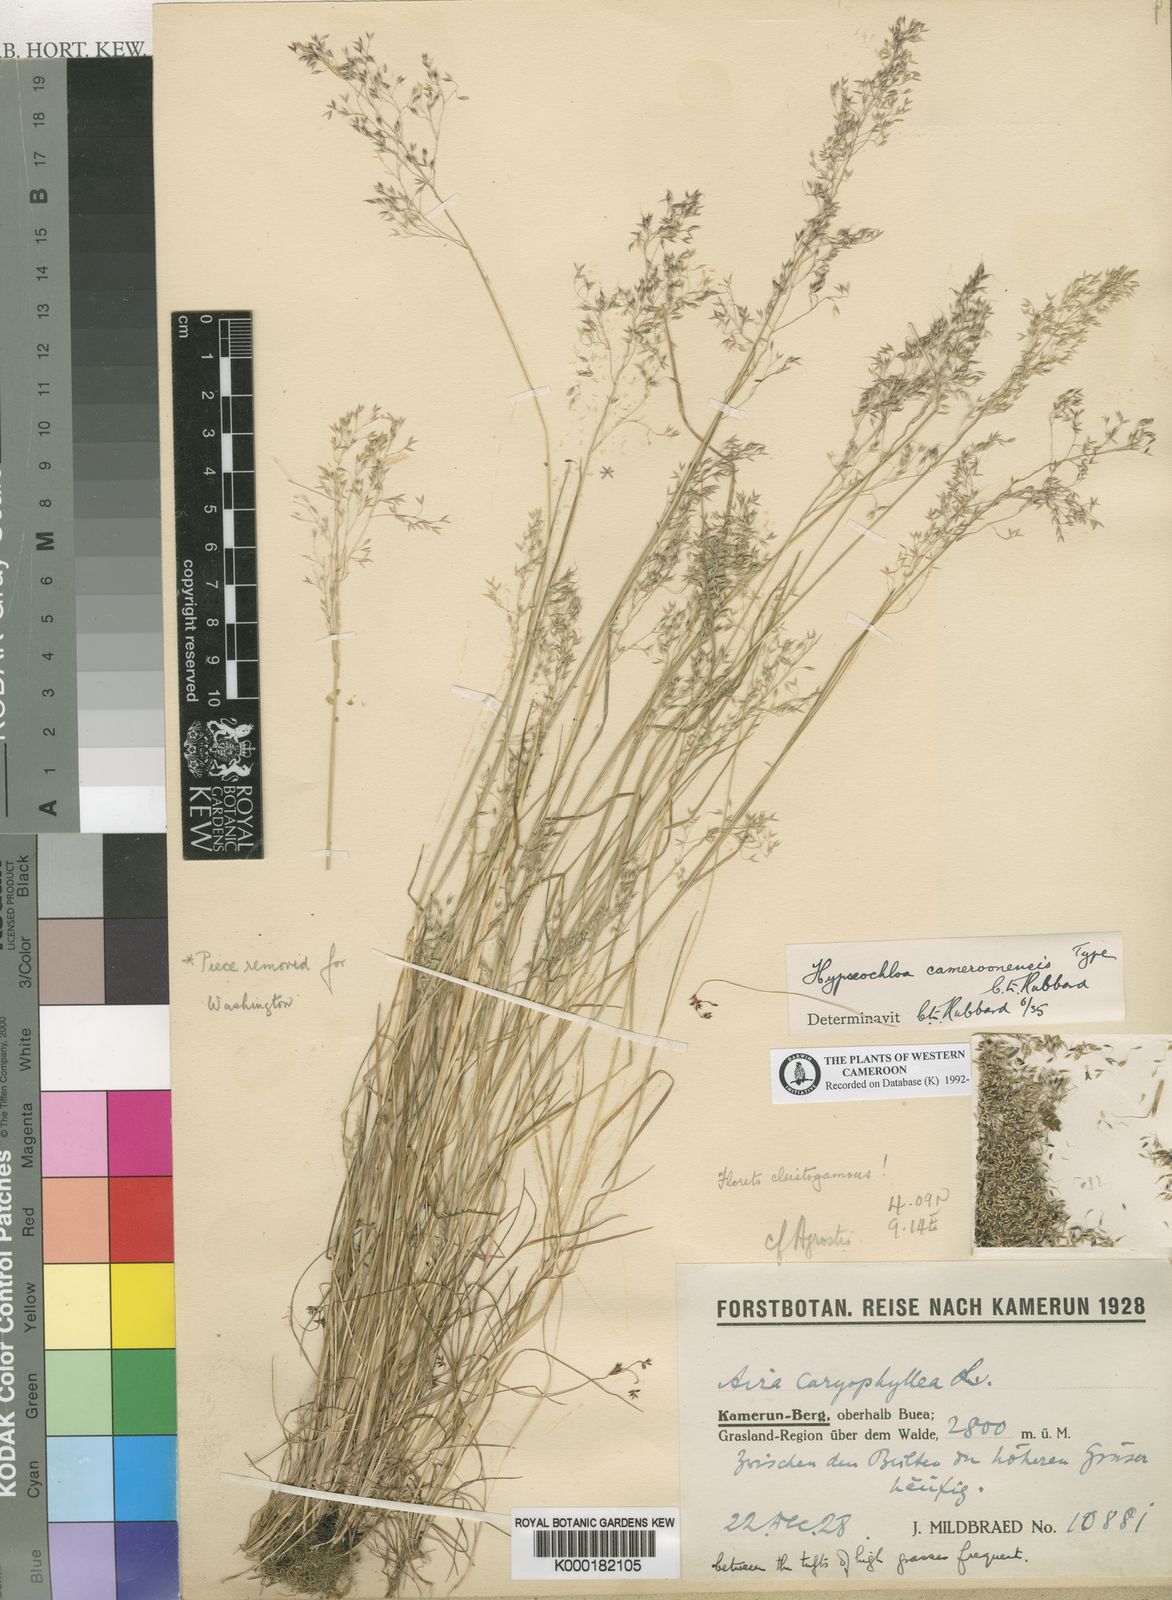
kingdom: Plantae
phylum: Tracheophyta
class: Liliopsida
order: Poales
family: Poaceae
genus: Hypseochloa
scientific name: Hypseochloa cameroonensis
